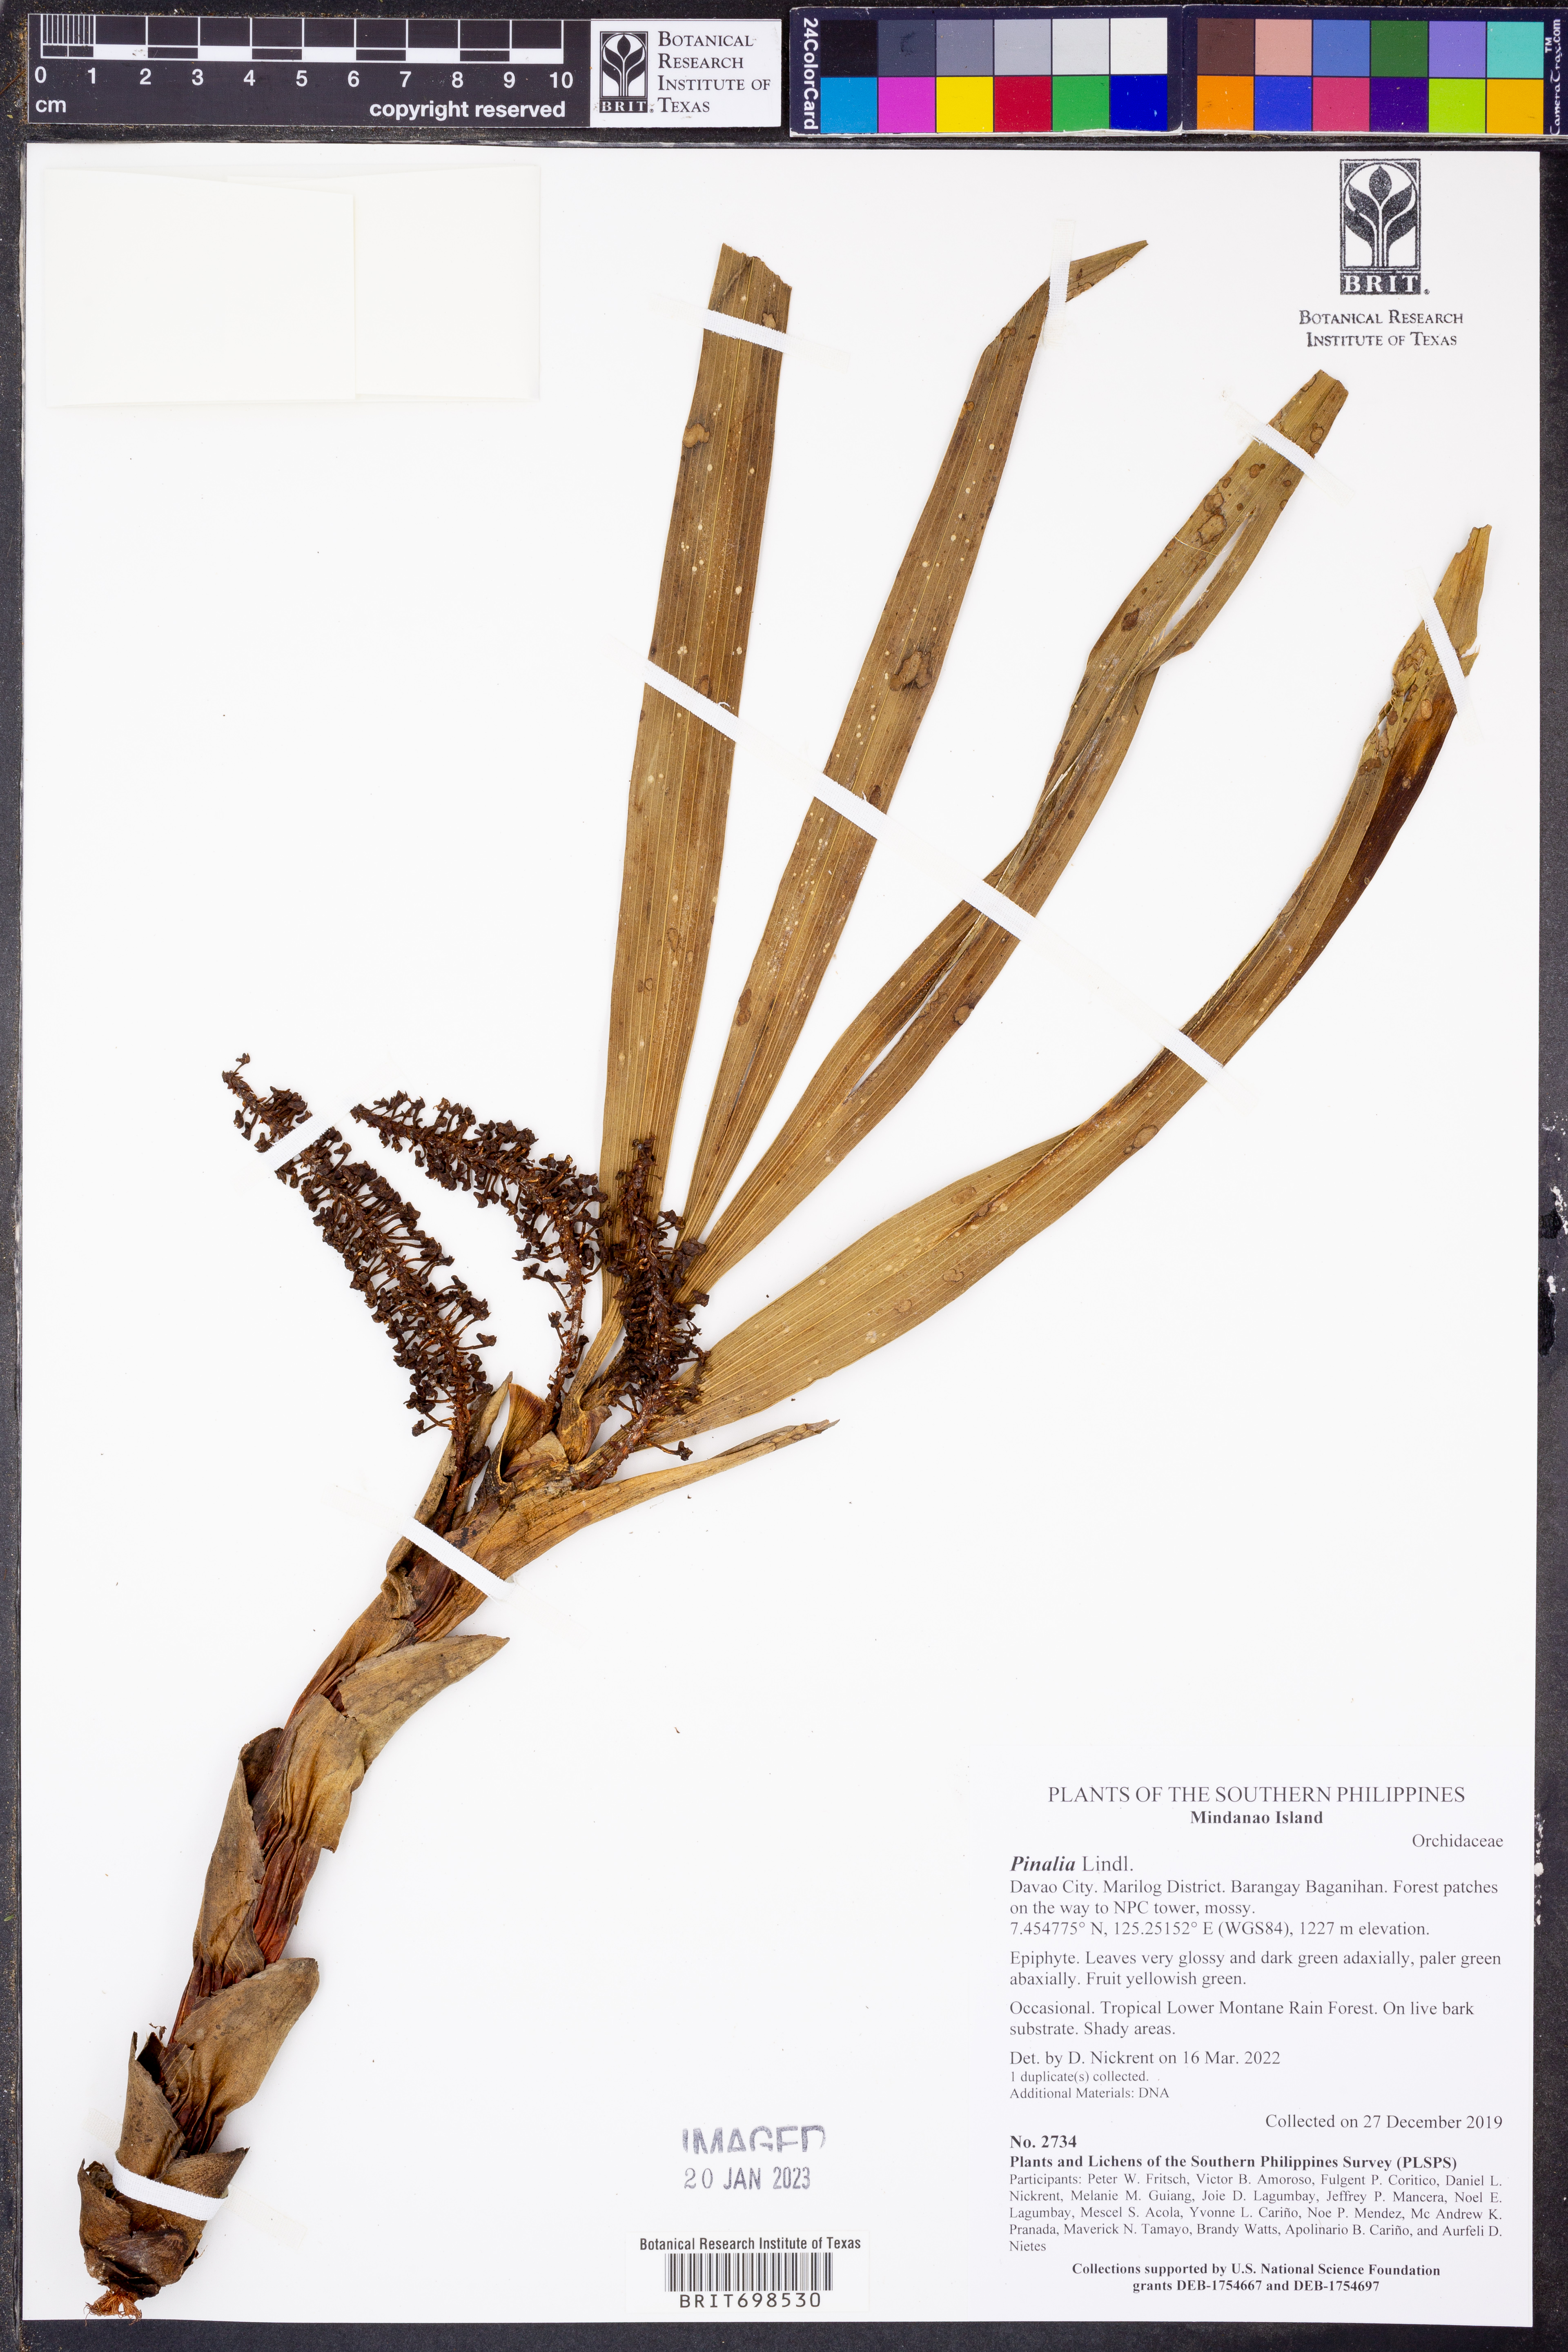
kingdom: Plantae
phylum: Tracheophyta
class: Liliopsida
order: Asparagales
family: Orchidaceae
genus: Pinalia
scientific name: Pinalia
